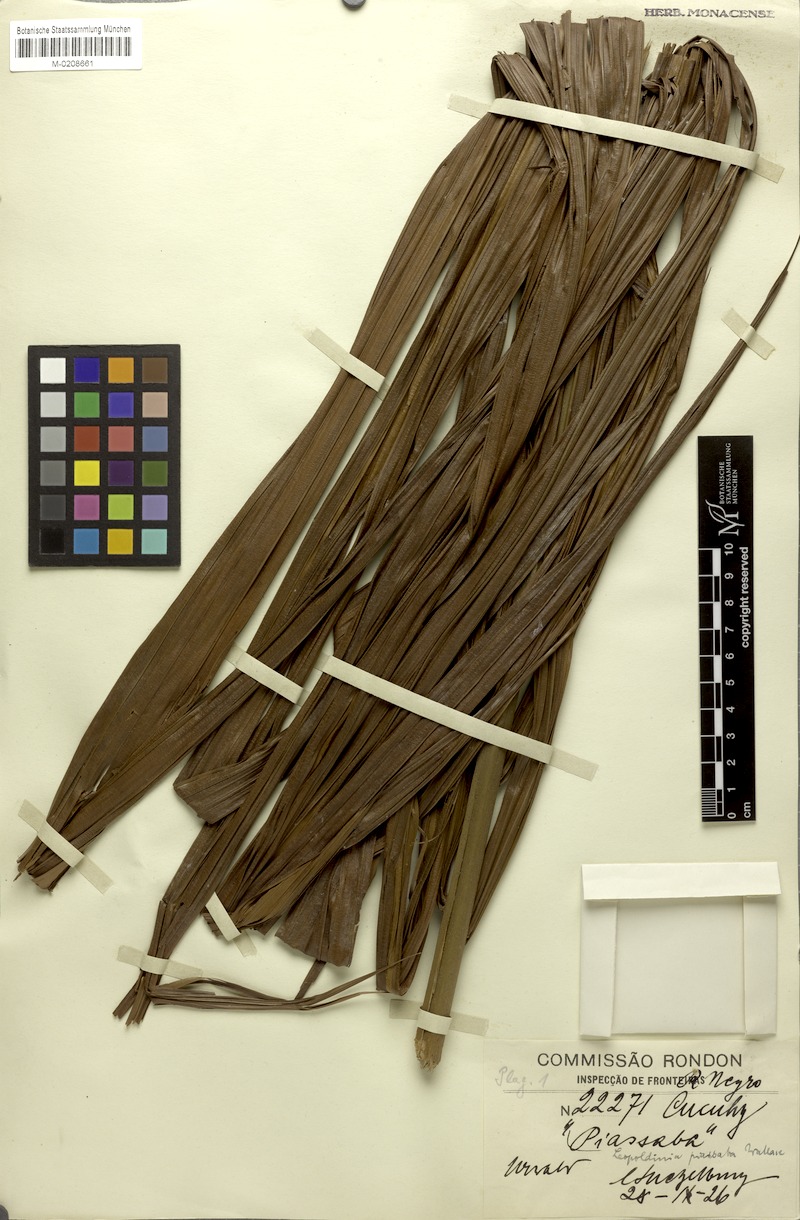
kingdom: Plantae
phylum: Tracheophyta
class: Liliopsida
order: Arecales
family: Arecaceae
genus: Leopoldinia
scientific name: Leopoldinia piassaba
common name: Piassaba
